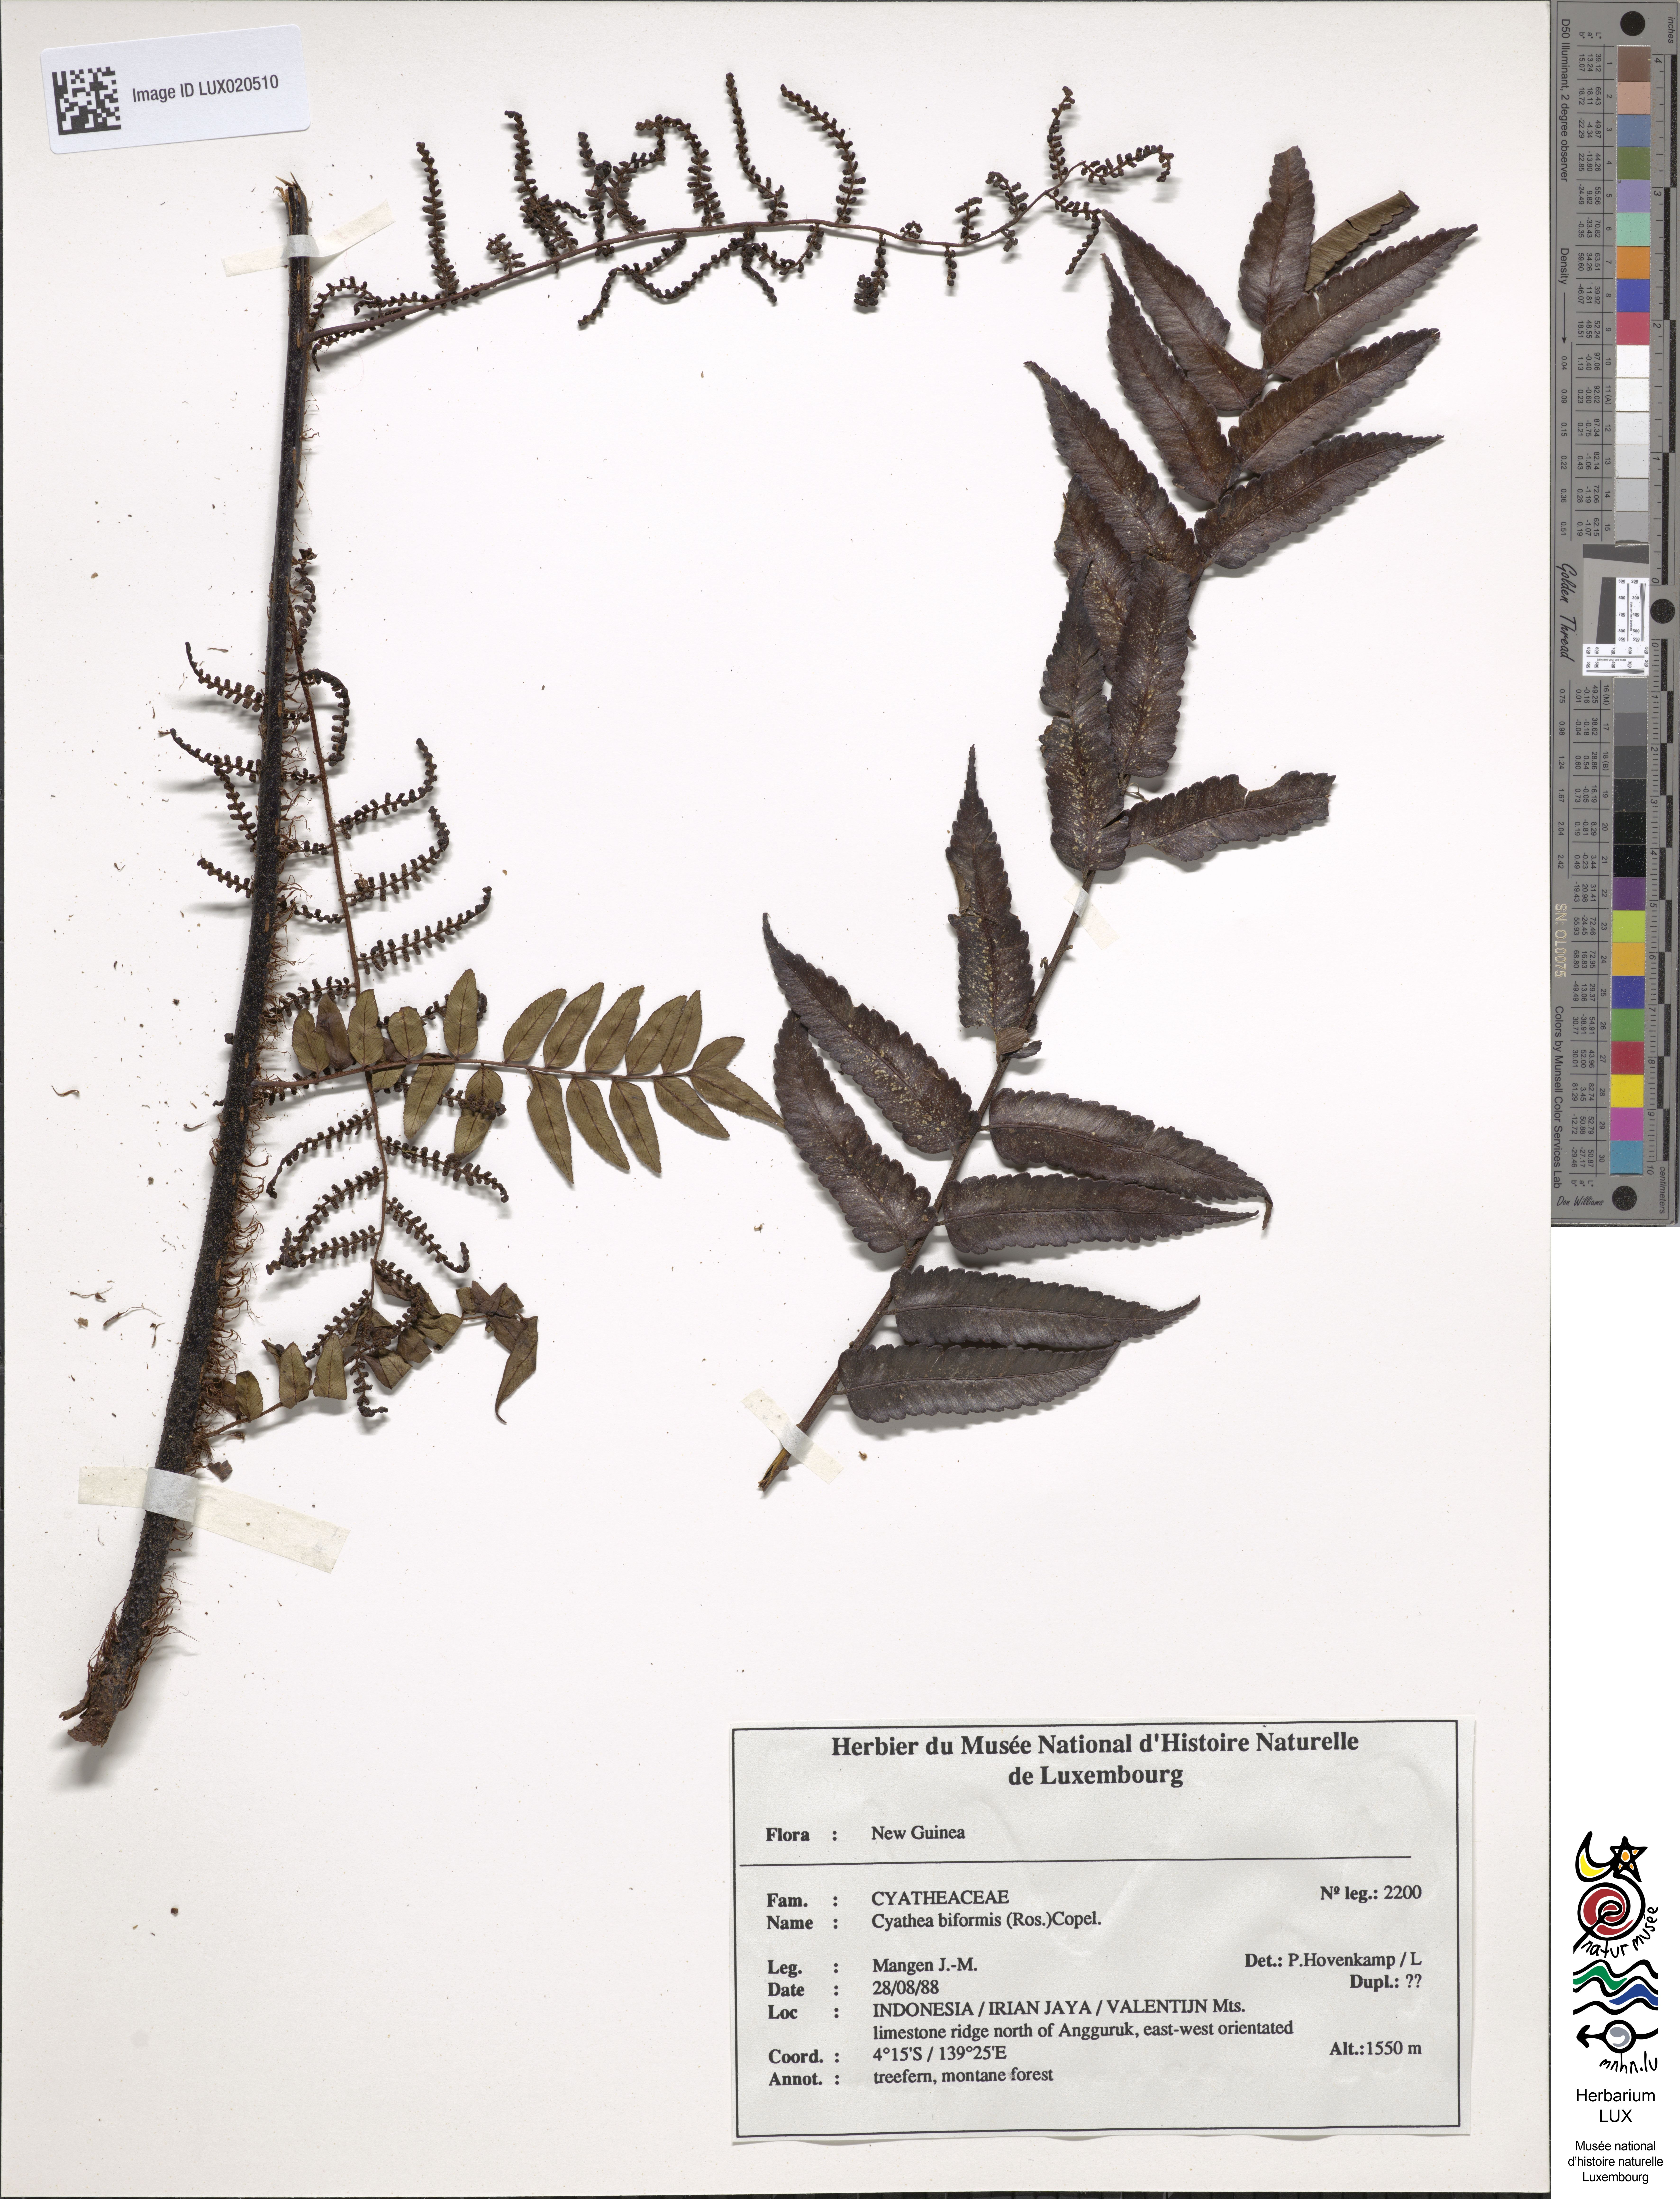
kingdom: Plantae
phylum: Tracheophyta
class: Polypodiopsida
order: Cyatheales
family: Cyatheaceae
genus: Gymnosphaera
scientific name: Gymnosphaera biformis
